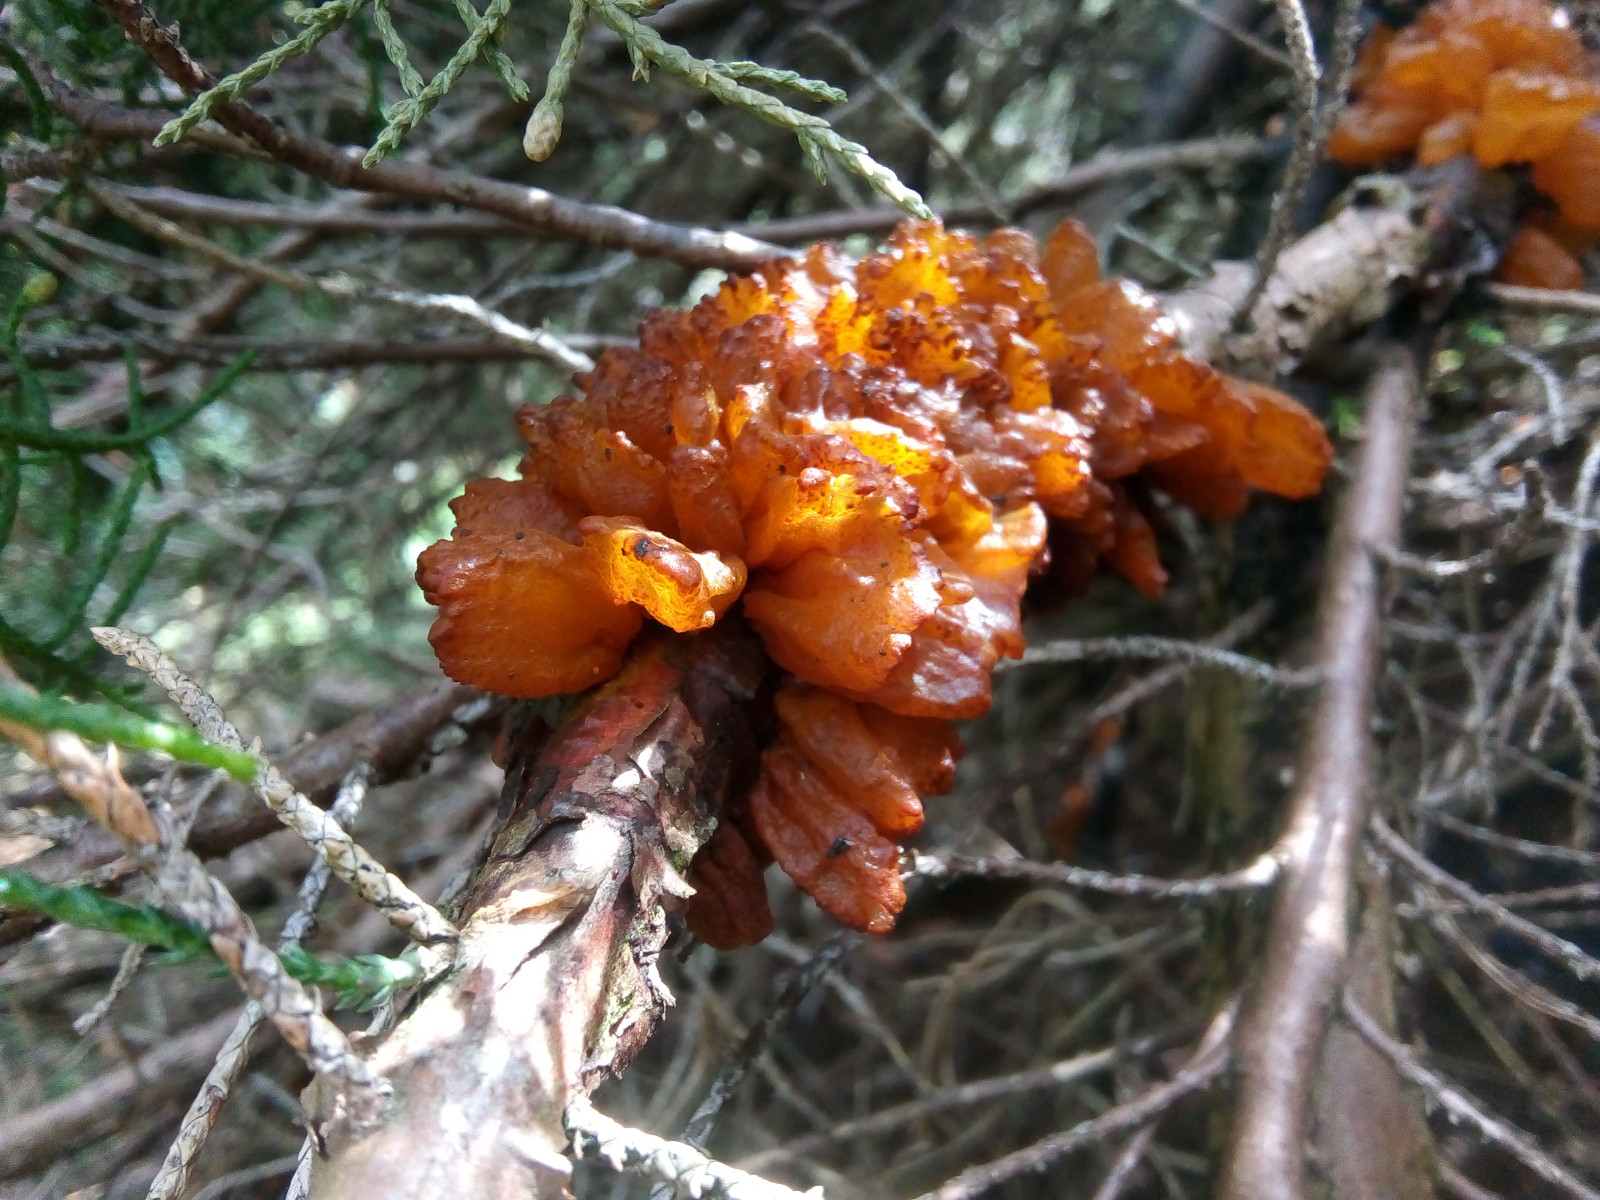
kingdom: Fungi
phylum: Basidiomycota
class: Pucciniomycetes
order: Pucciniales
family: Gymnosporangiaceae
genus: Gymnosporangium
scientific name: Gymnosporangium sabinae
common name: pæregitter-bævrerust
